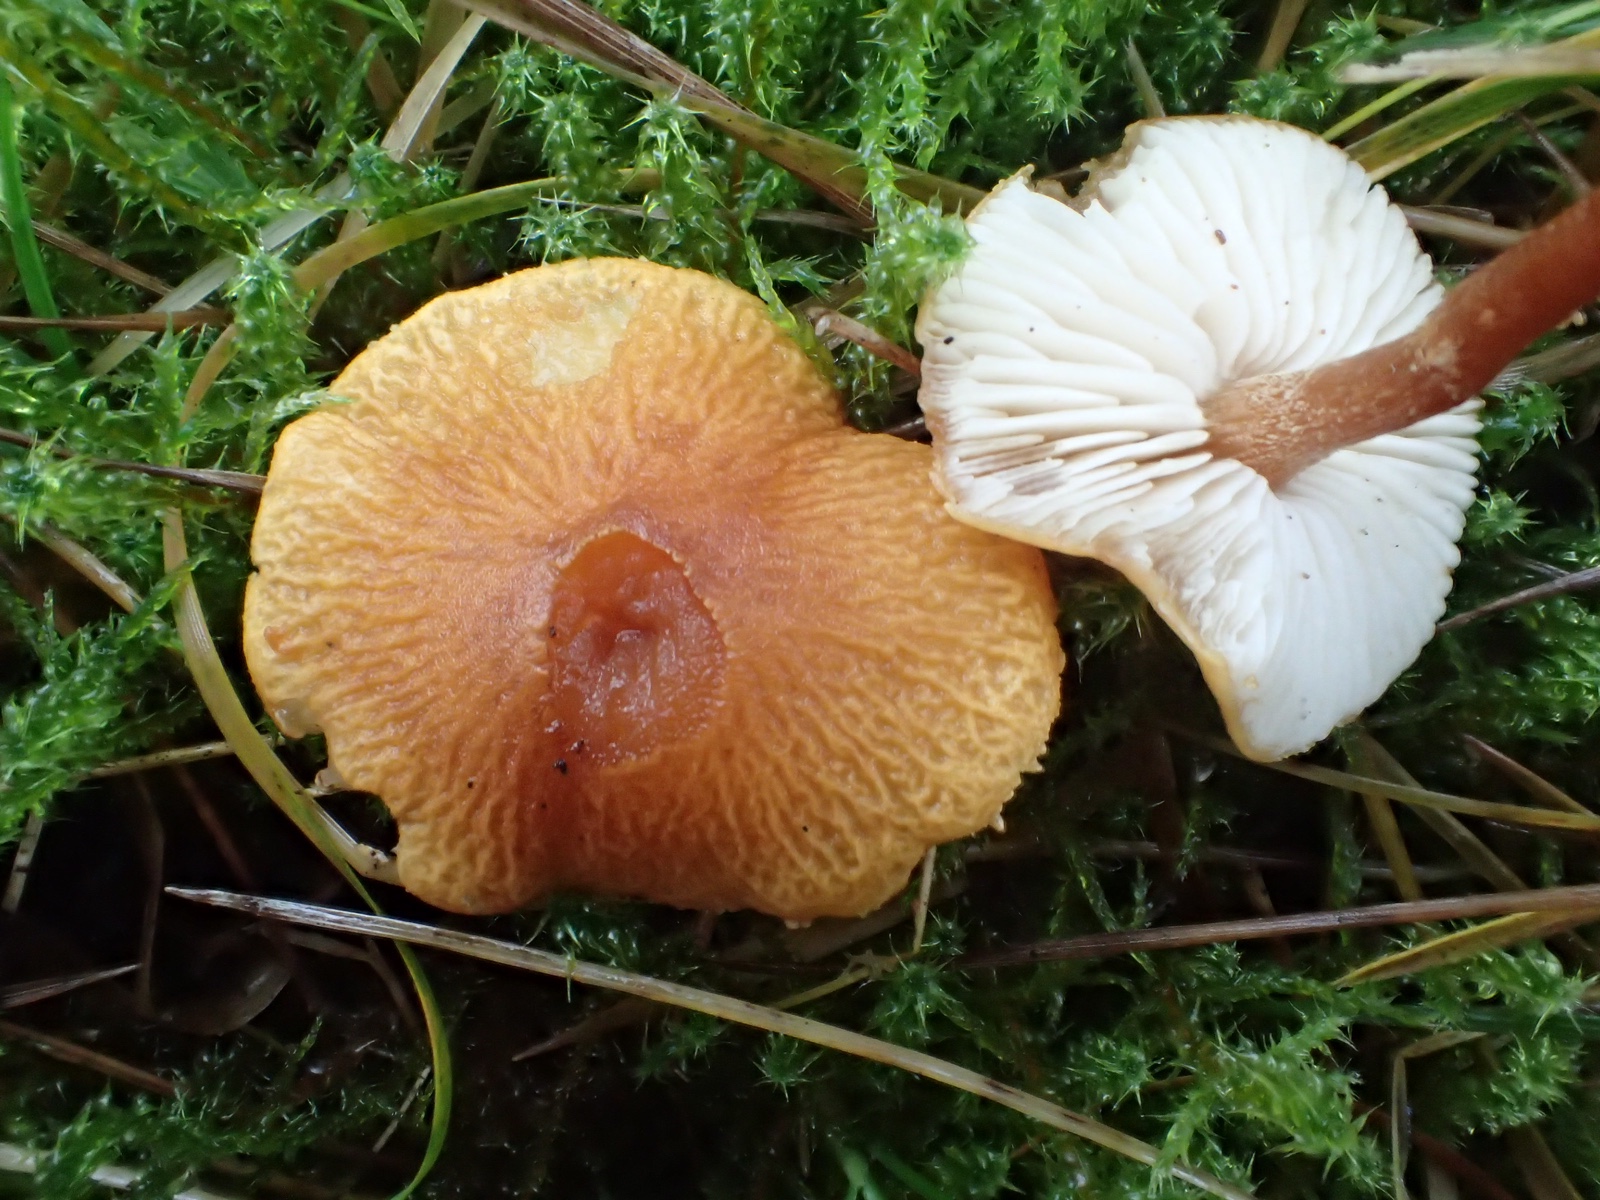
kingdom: Fungi
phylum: Basidiomycota
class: Agaricomycetes
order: Agaricales
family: Tricholomataceae
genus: Cystoderma
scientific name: Cystoderma amianthinum
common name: okkergul grynhat
